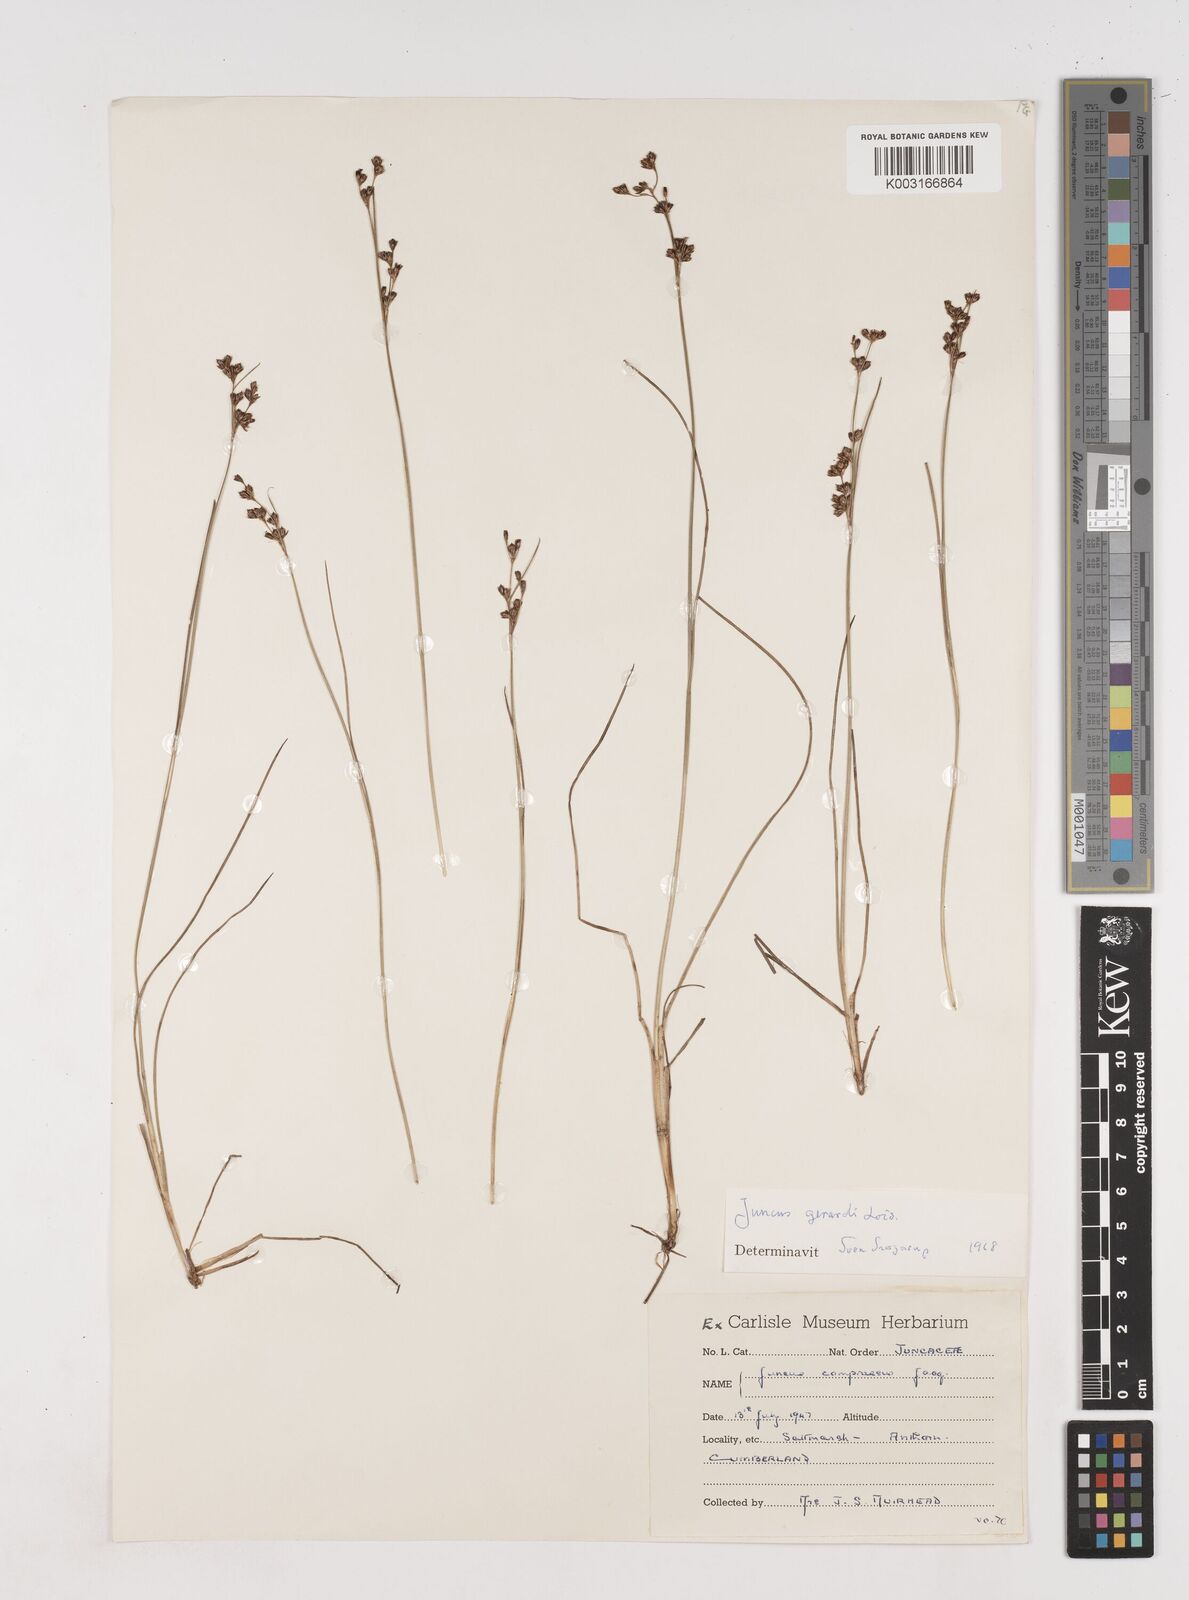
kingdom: Plantae
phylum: Tracheophyta
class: Liliopsida
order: Poales
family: Juncaceae
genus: Juncus
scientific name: Juncus gerardi
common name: Saltmarsh rush
